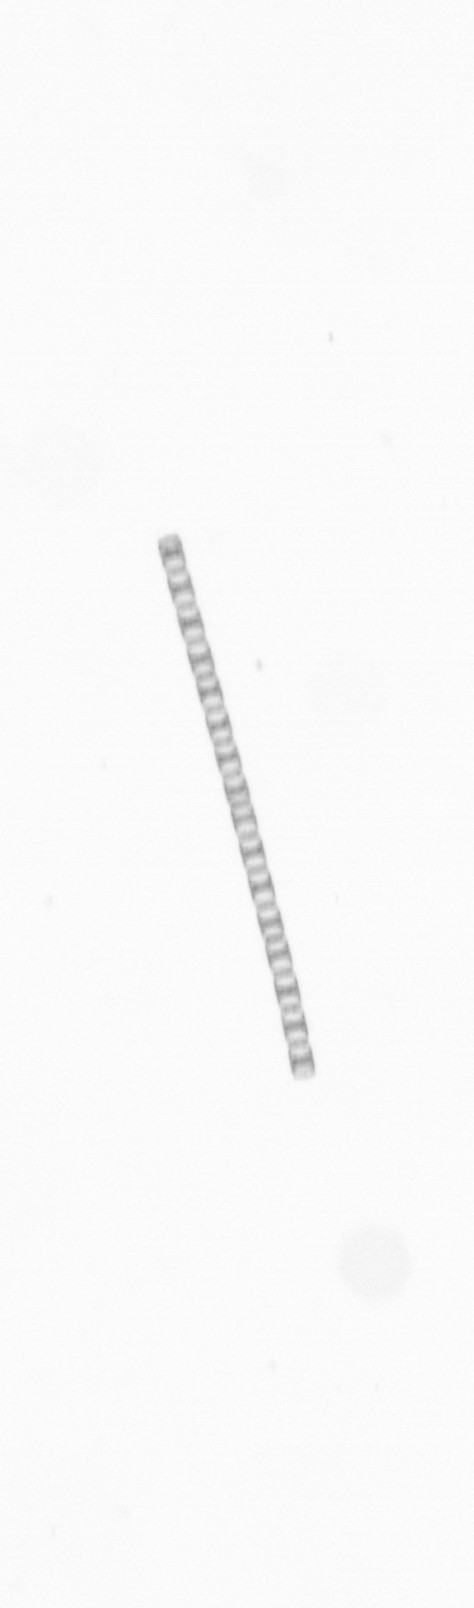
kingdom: Chromista
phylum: Ochrophyta
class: Bacillariophyceae
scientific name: Bacillariophyceae
